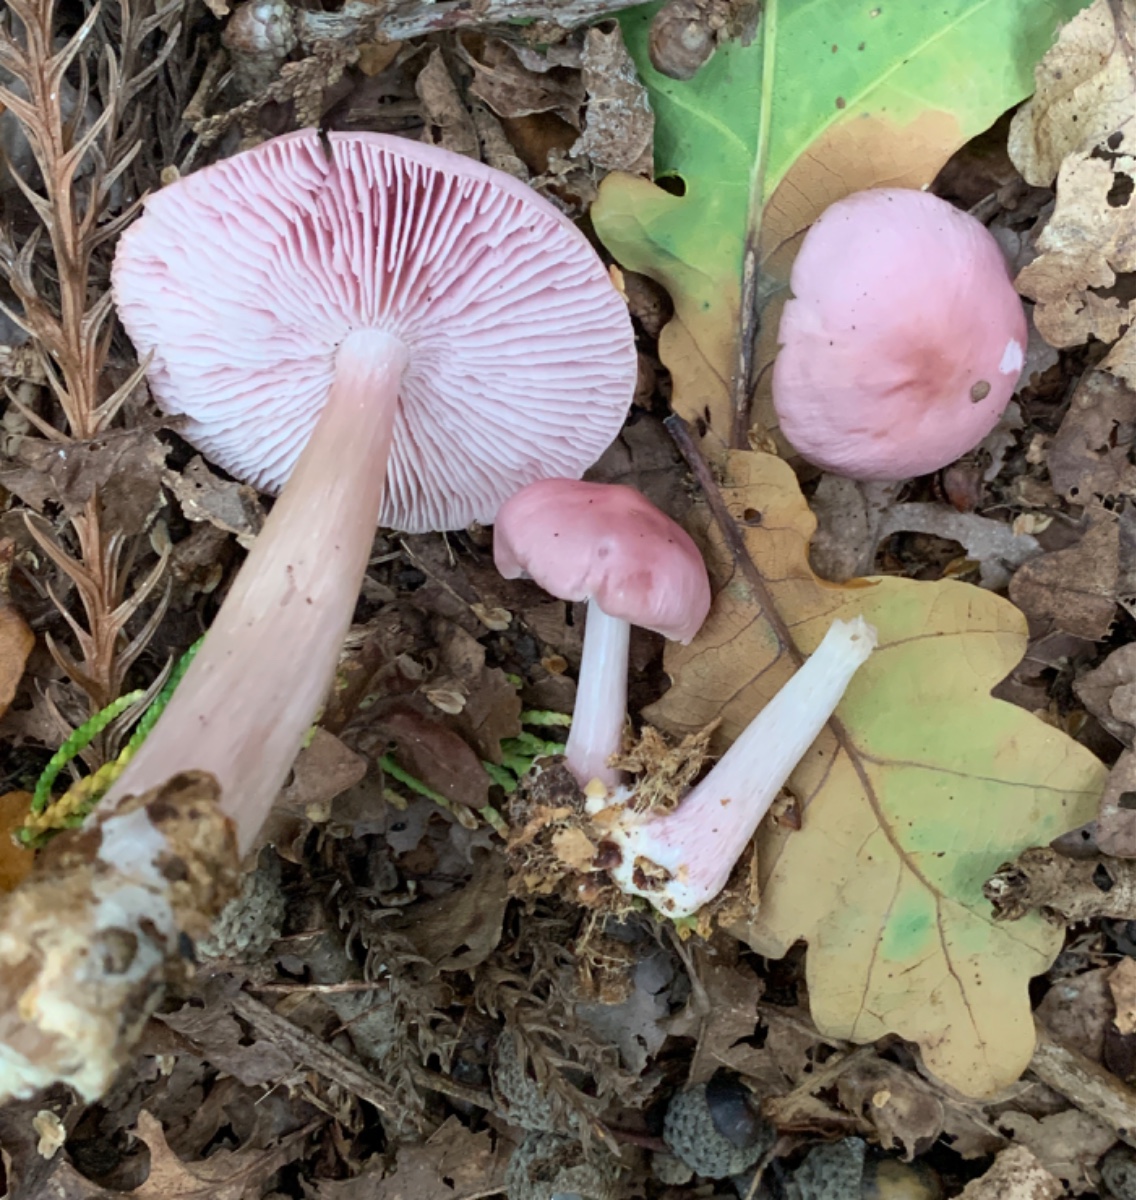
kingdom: Fungi
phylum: Basidiomycota
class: Agaricomycetes
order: Agaricales
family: Mycenaceae
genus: Mycena
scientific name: Mycena rosea
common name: rosa huesvamp
